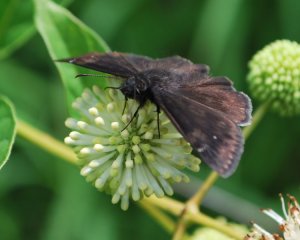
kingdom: Animalia
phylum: Arthropoda
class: Insecta
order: Lepidoptera
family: Hesperiidae
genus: Erynnis
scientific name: Erynnis zarucco
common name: Zarucco Duskywing
